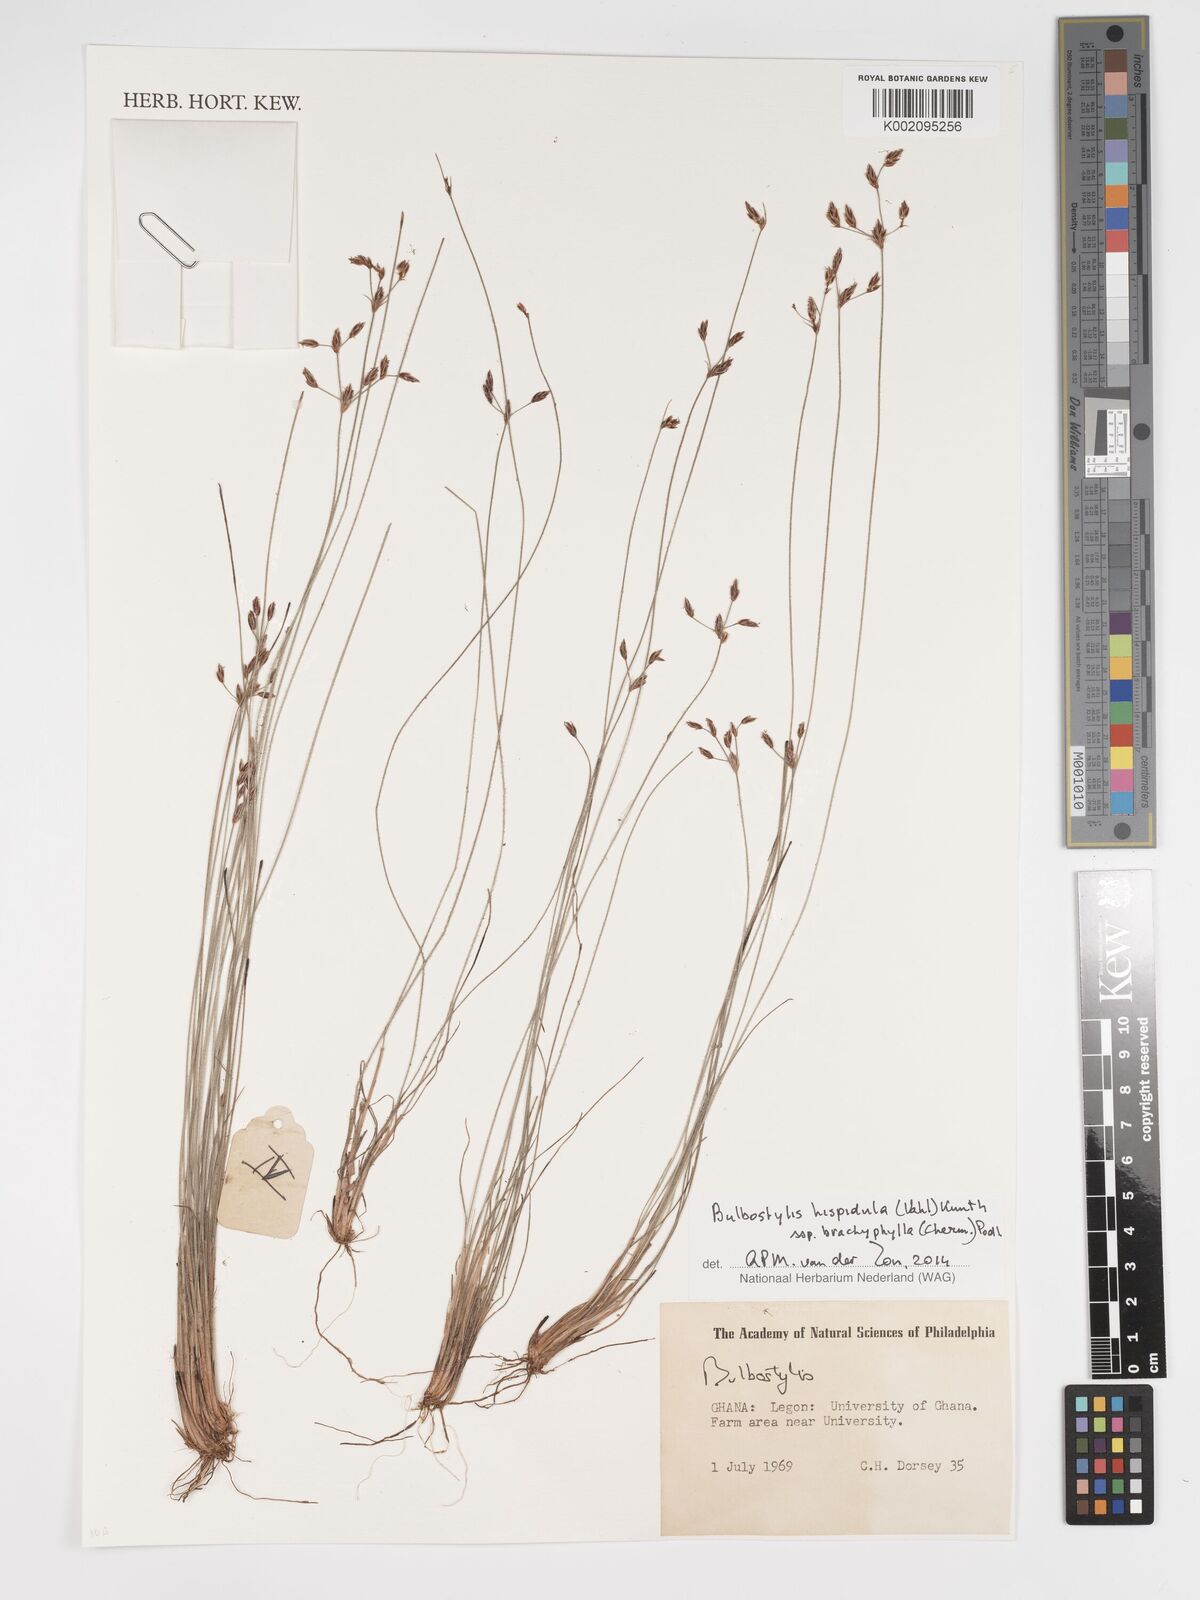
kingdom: Plantae
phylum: Tracheophyta
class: Liliopsida
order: Poales
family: Cyperaceae
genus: Bulbostylis
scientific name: Bulbostylis hispidula
